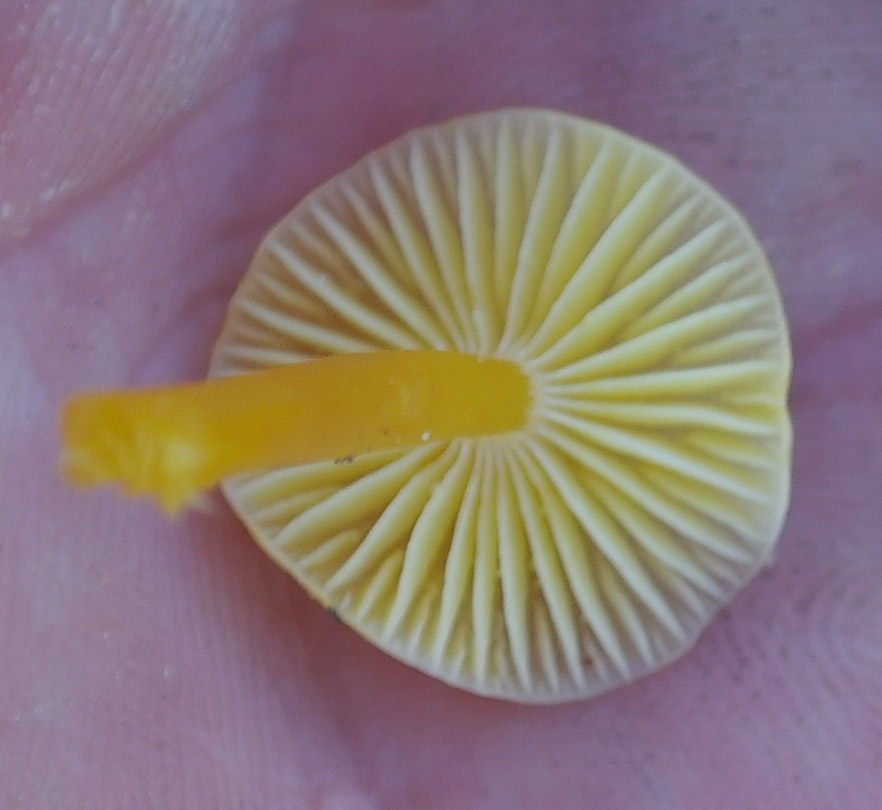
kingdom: Fungi
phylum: Basidiomycota
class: Agaricomycetes
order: Agaricales
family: Hygrophoraceae
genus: Hygrocybe
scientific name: Hygrocybe glutinipes
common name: slimstokket vokshat
